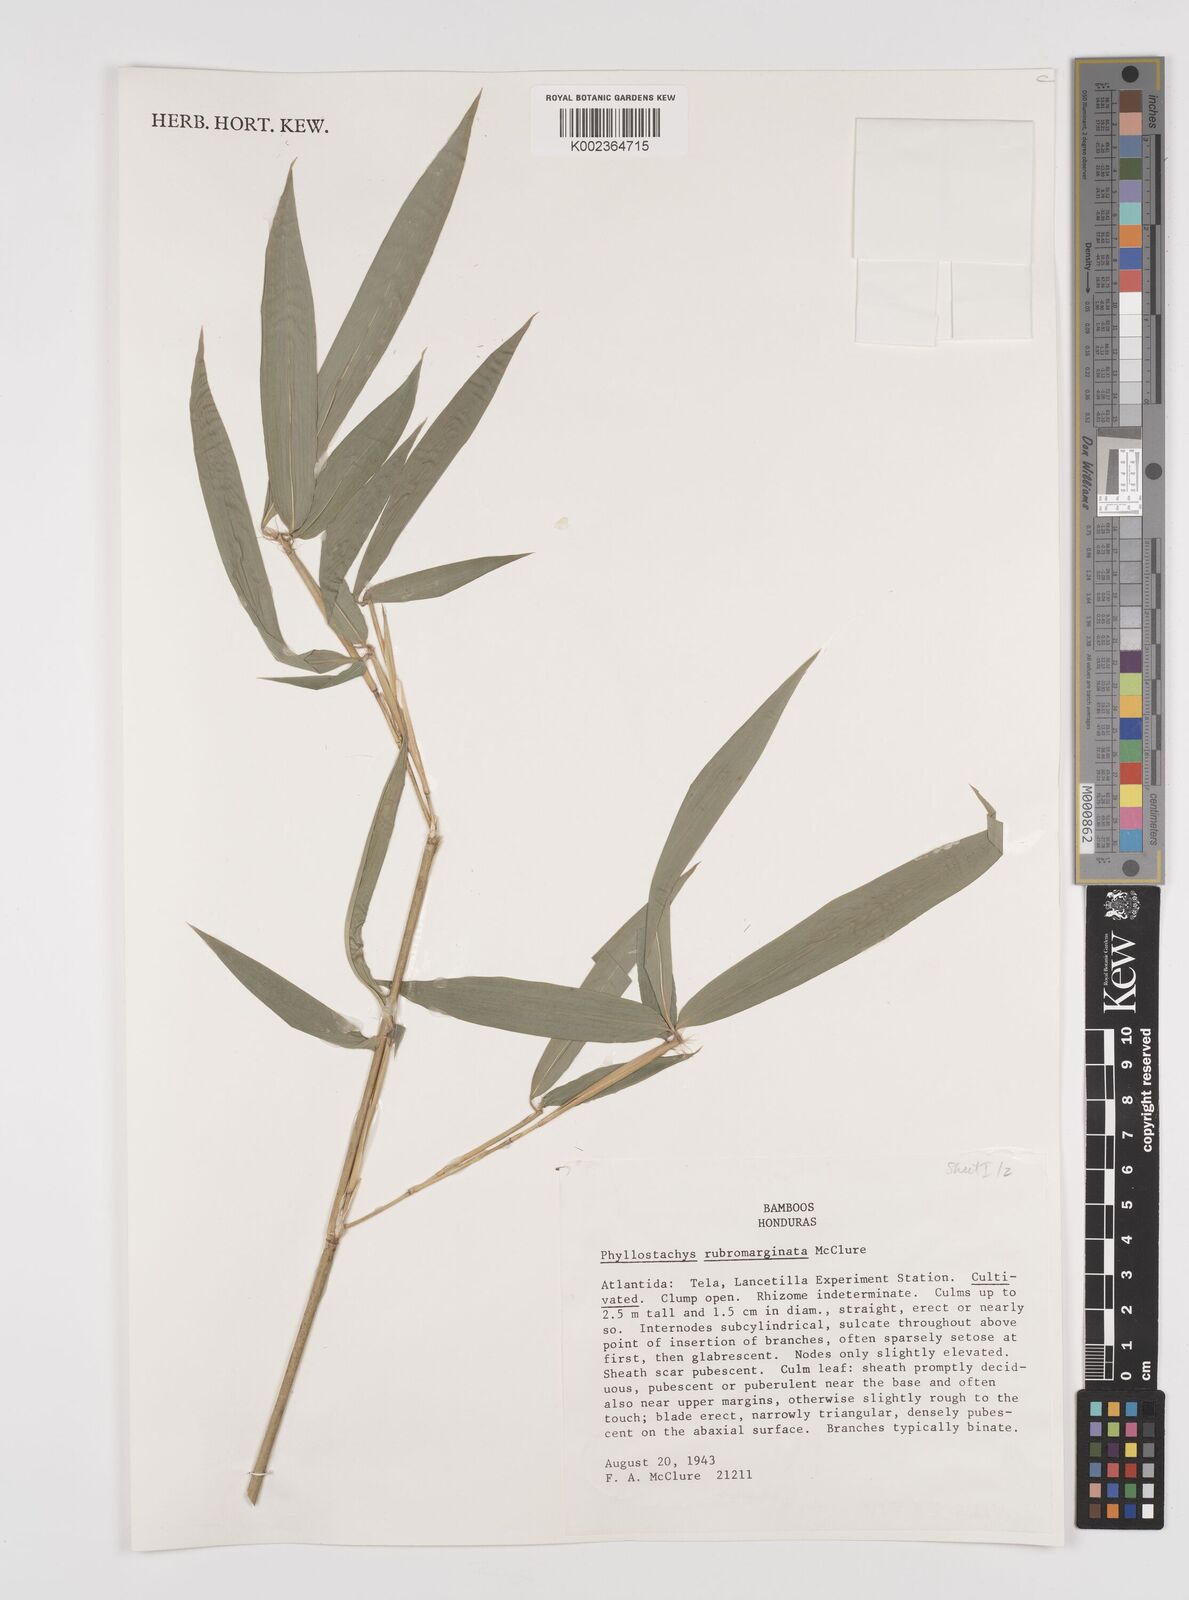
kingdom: Plantae
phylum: Tracheophyta
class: Liliopsida
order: Poales
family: Poaceae
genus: Phyllostachys
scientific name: Phyllostachys rubromarginata
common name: Reddish bamboo
